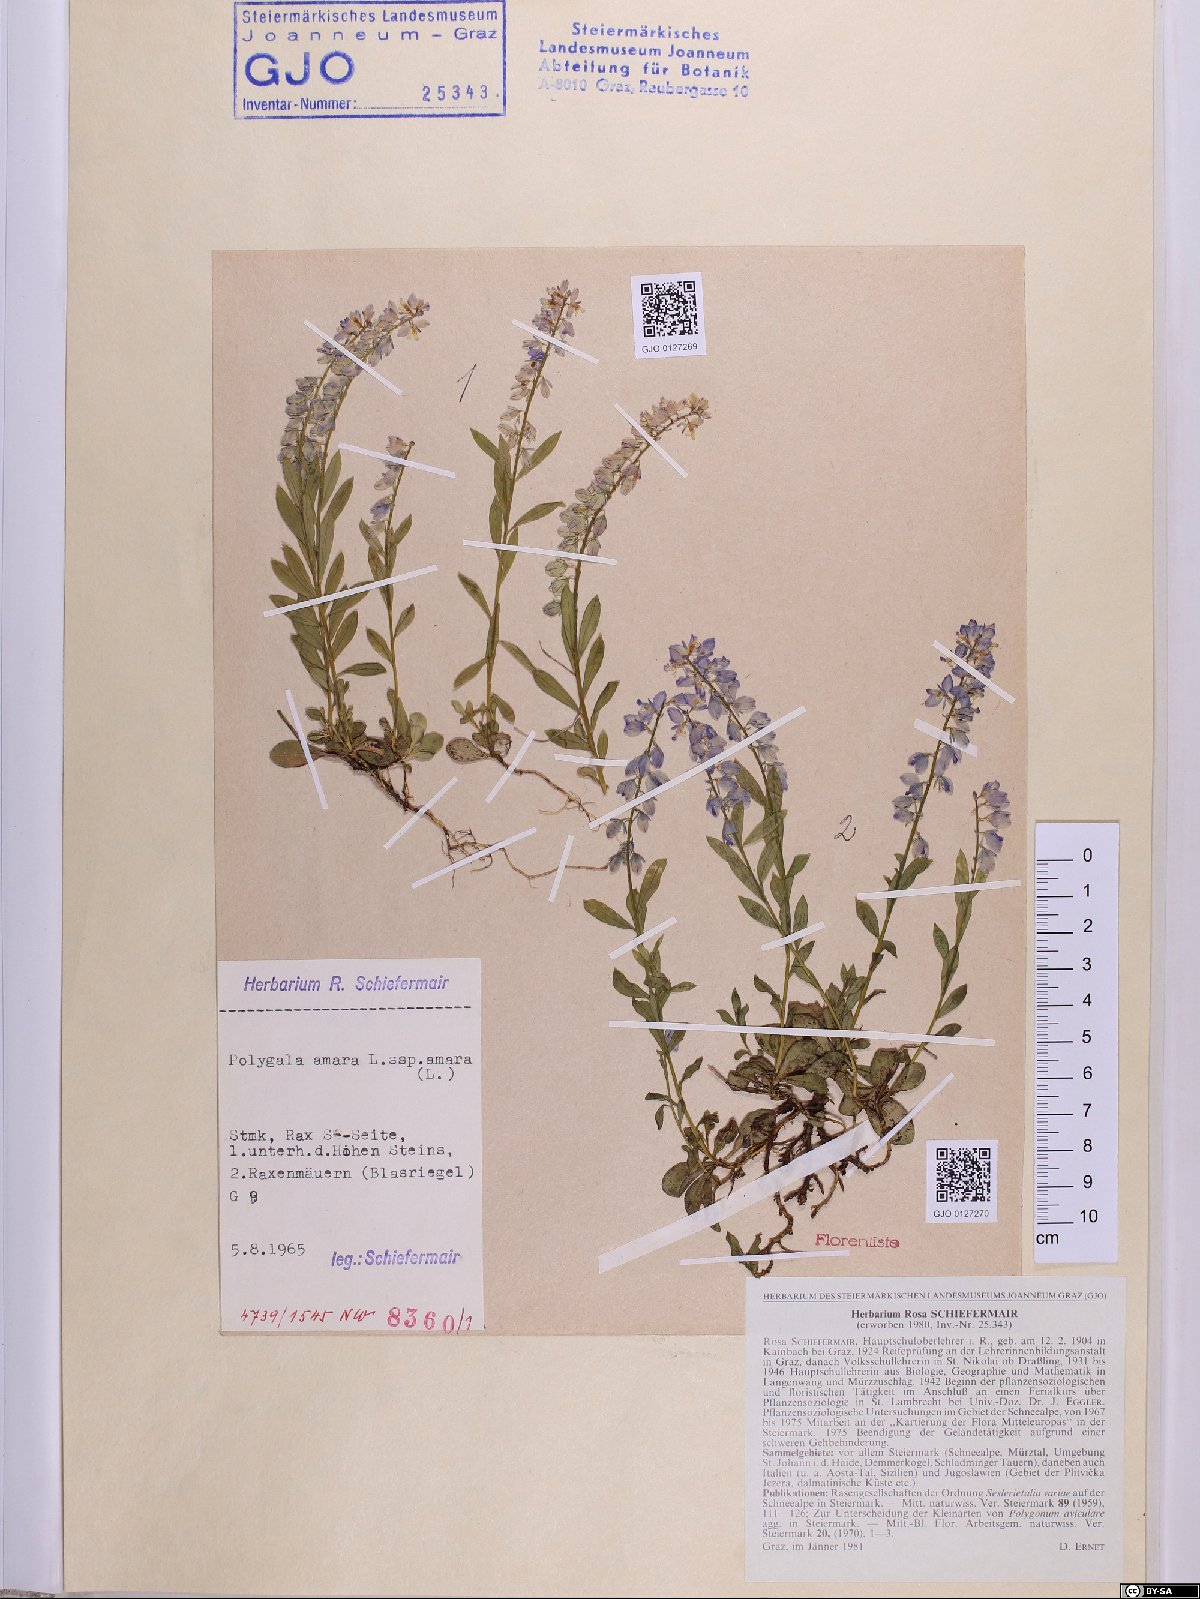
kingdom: Plantae
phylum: Tracheophyta
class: Magnoliopsida
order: Fabales
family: Polygalaceae
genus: Polygala
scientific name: Polygala amara
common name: Milkwort
